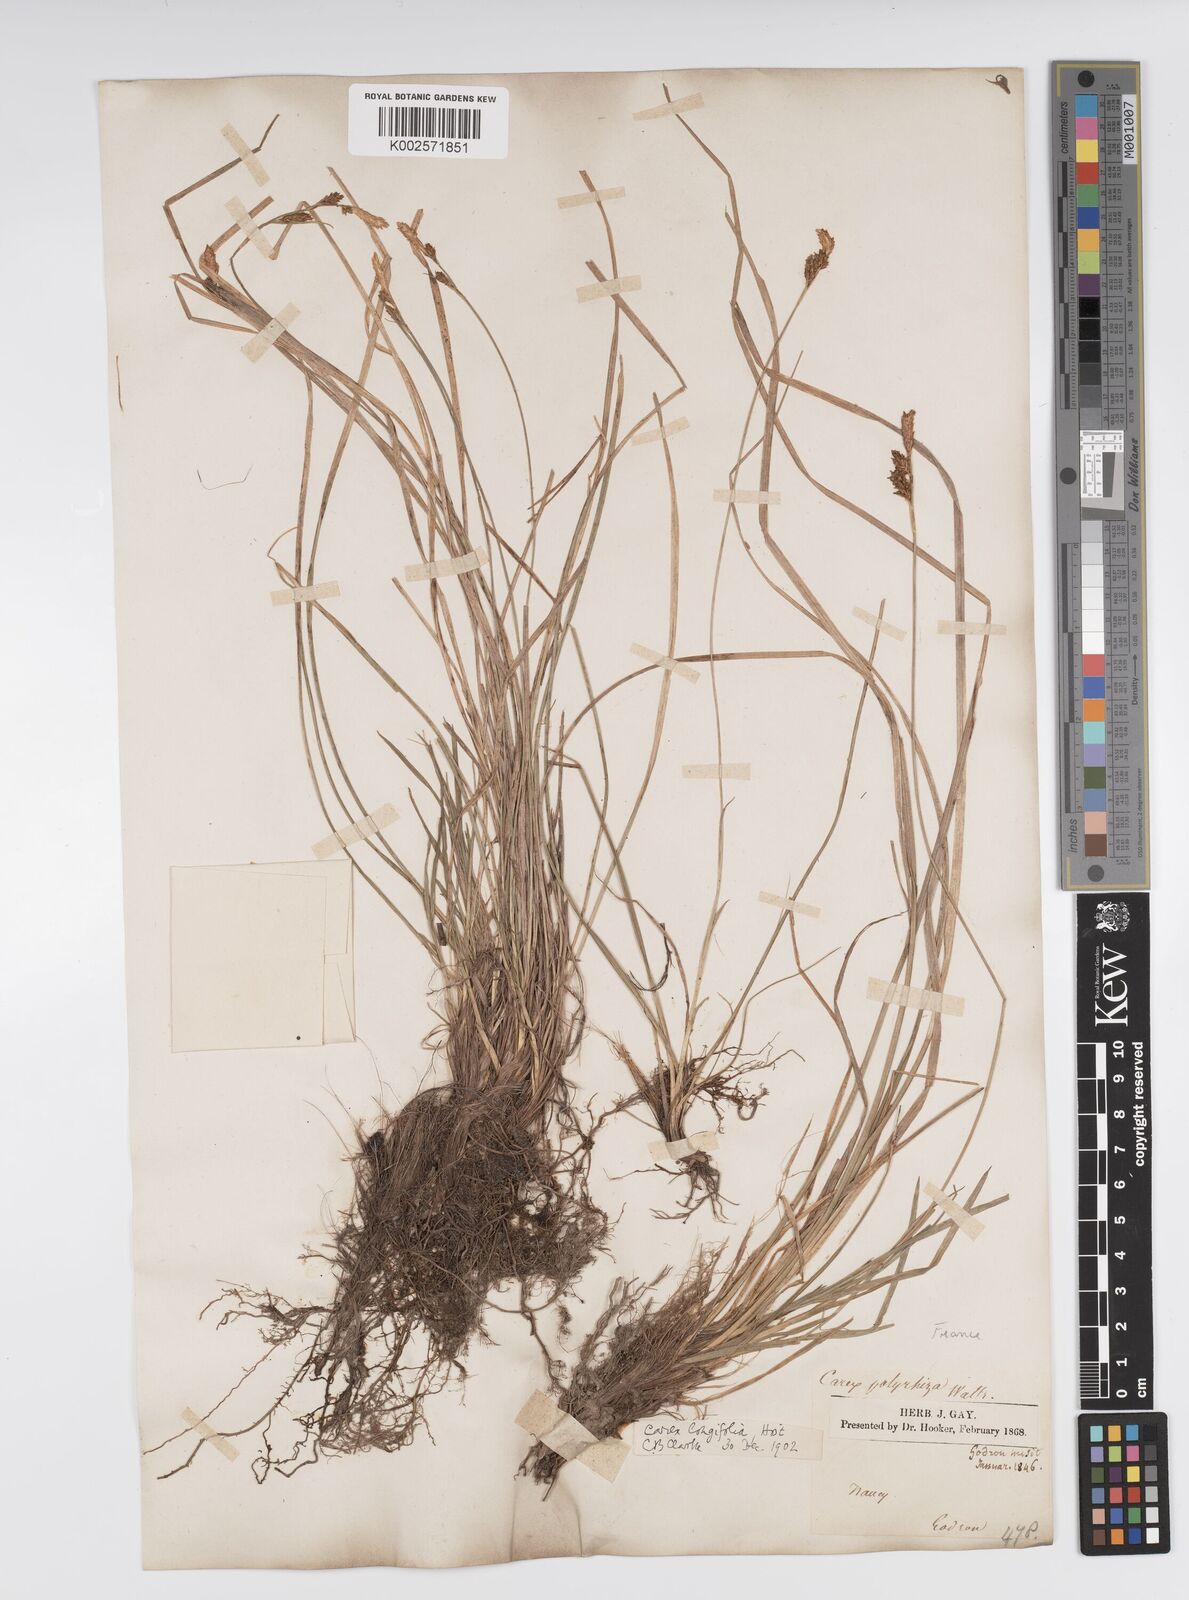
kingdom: Plantae
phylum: Tracheophyta
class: Liliopsida
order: Poales
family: Cyperaceae
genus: Carex
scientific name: Carex umbrosa
